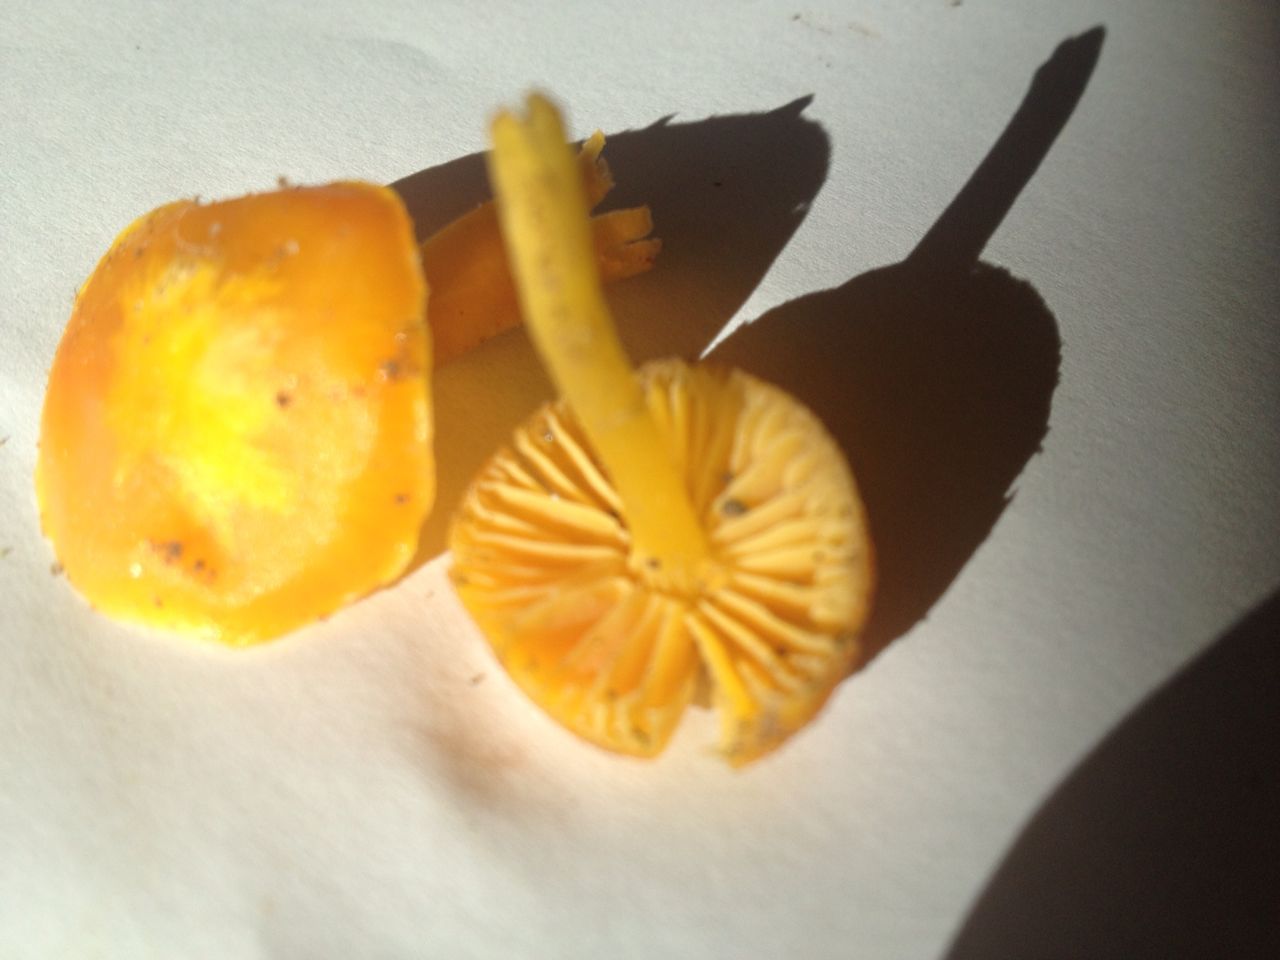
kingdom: Fungi
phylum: Basidiomycota
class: Agaricomycetes
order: Agaricales
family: Hygrophoraceae
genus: Hygrocybe
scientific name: Hygrocybe ceracea
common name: voksgul vokshat
